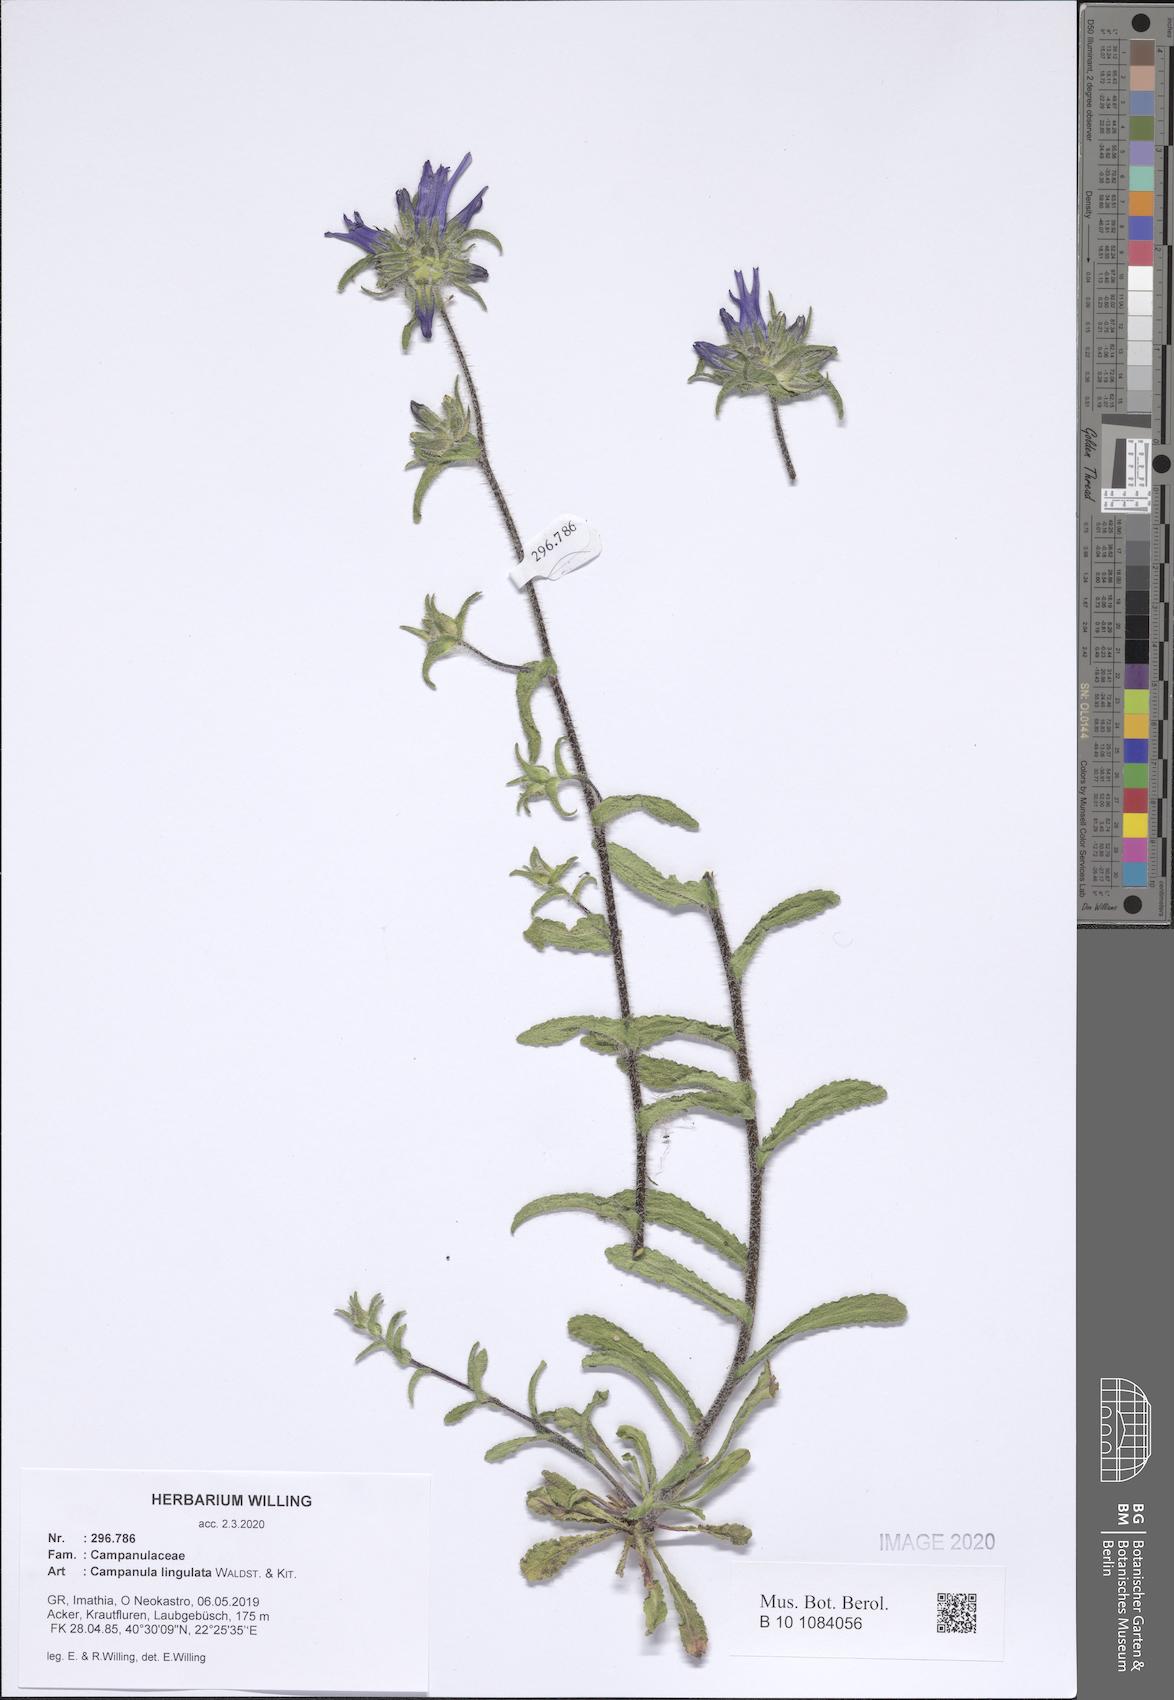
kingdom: Plantae
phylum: Tracheophyta
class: Magnoliopsida
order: Asterales
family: Campanulaceae
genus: Campanula
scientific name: Campanula lingulata
